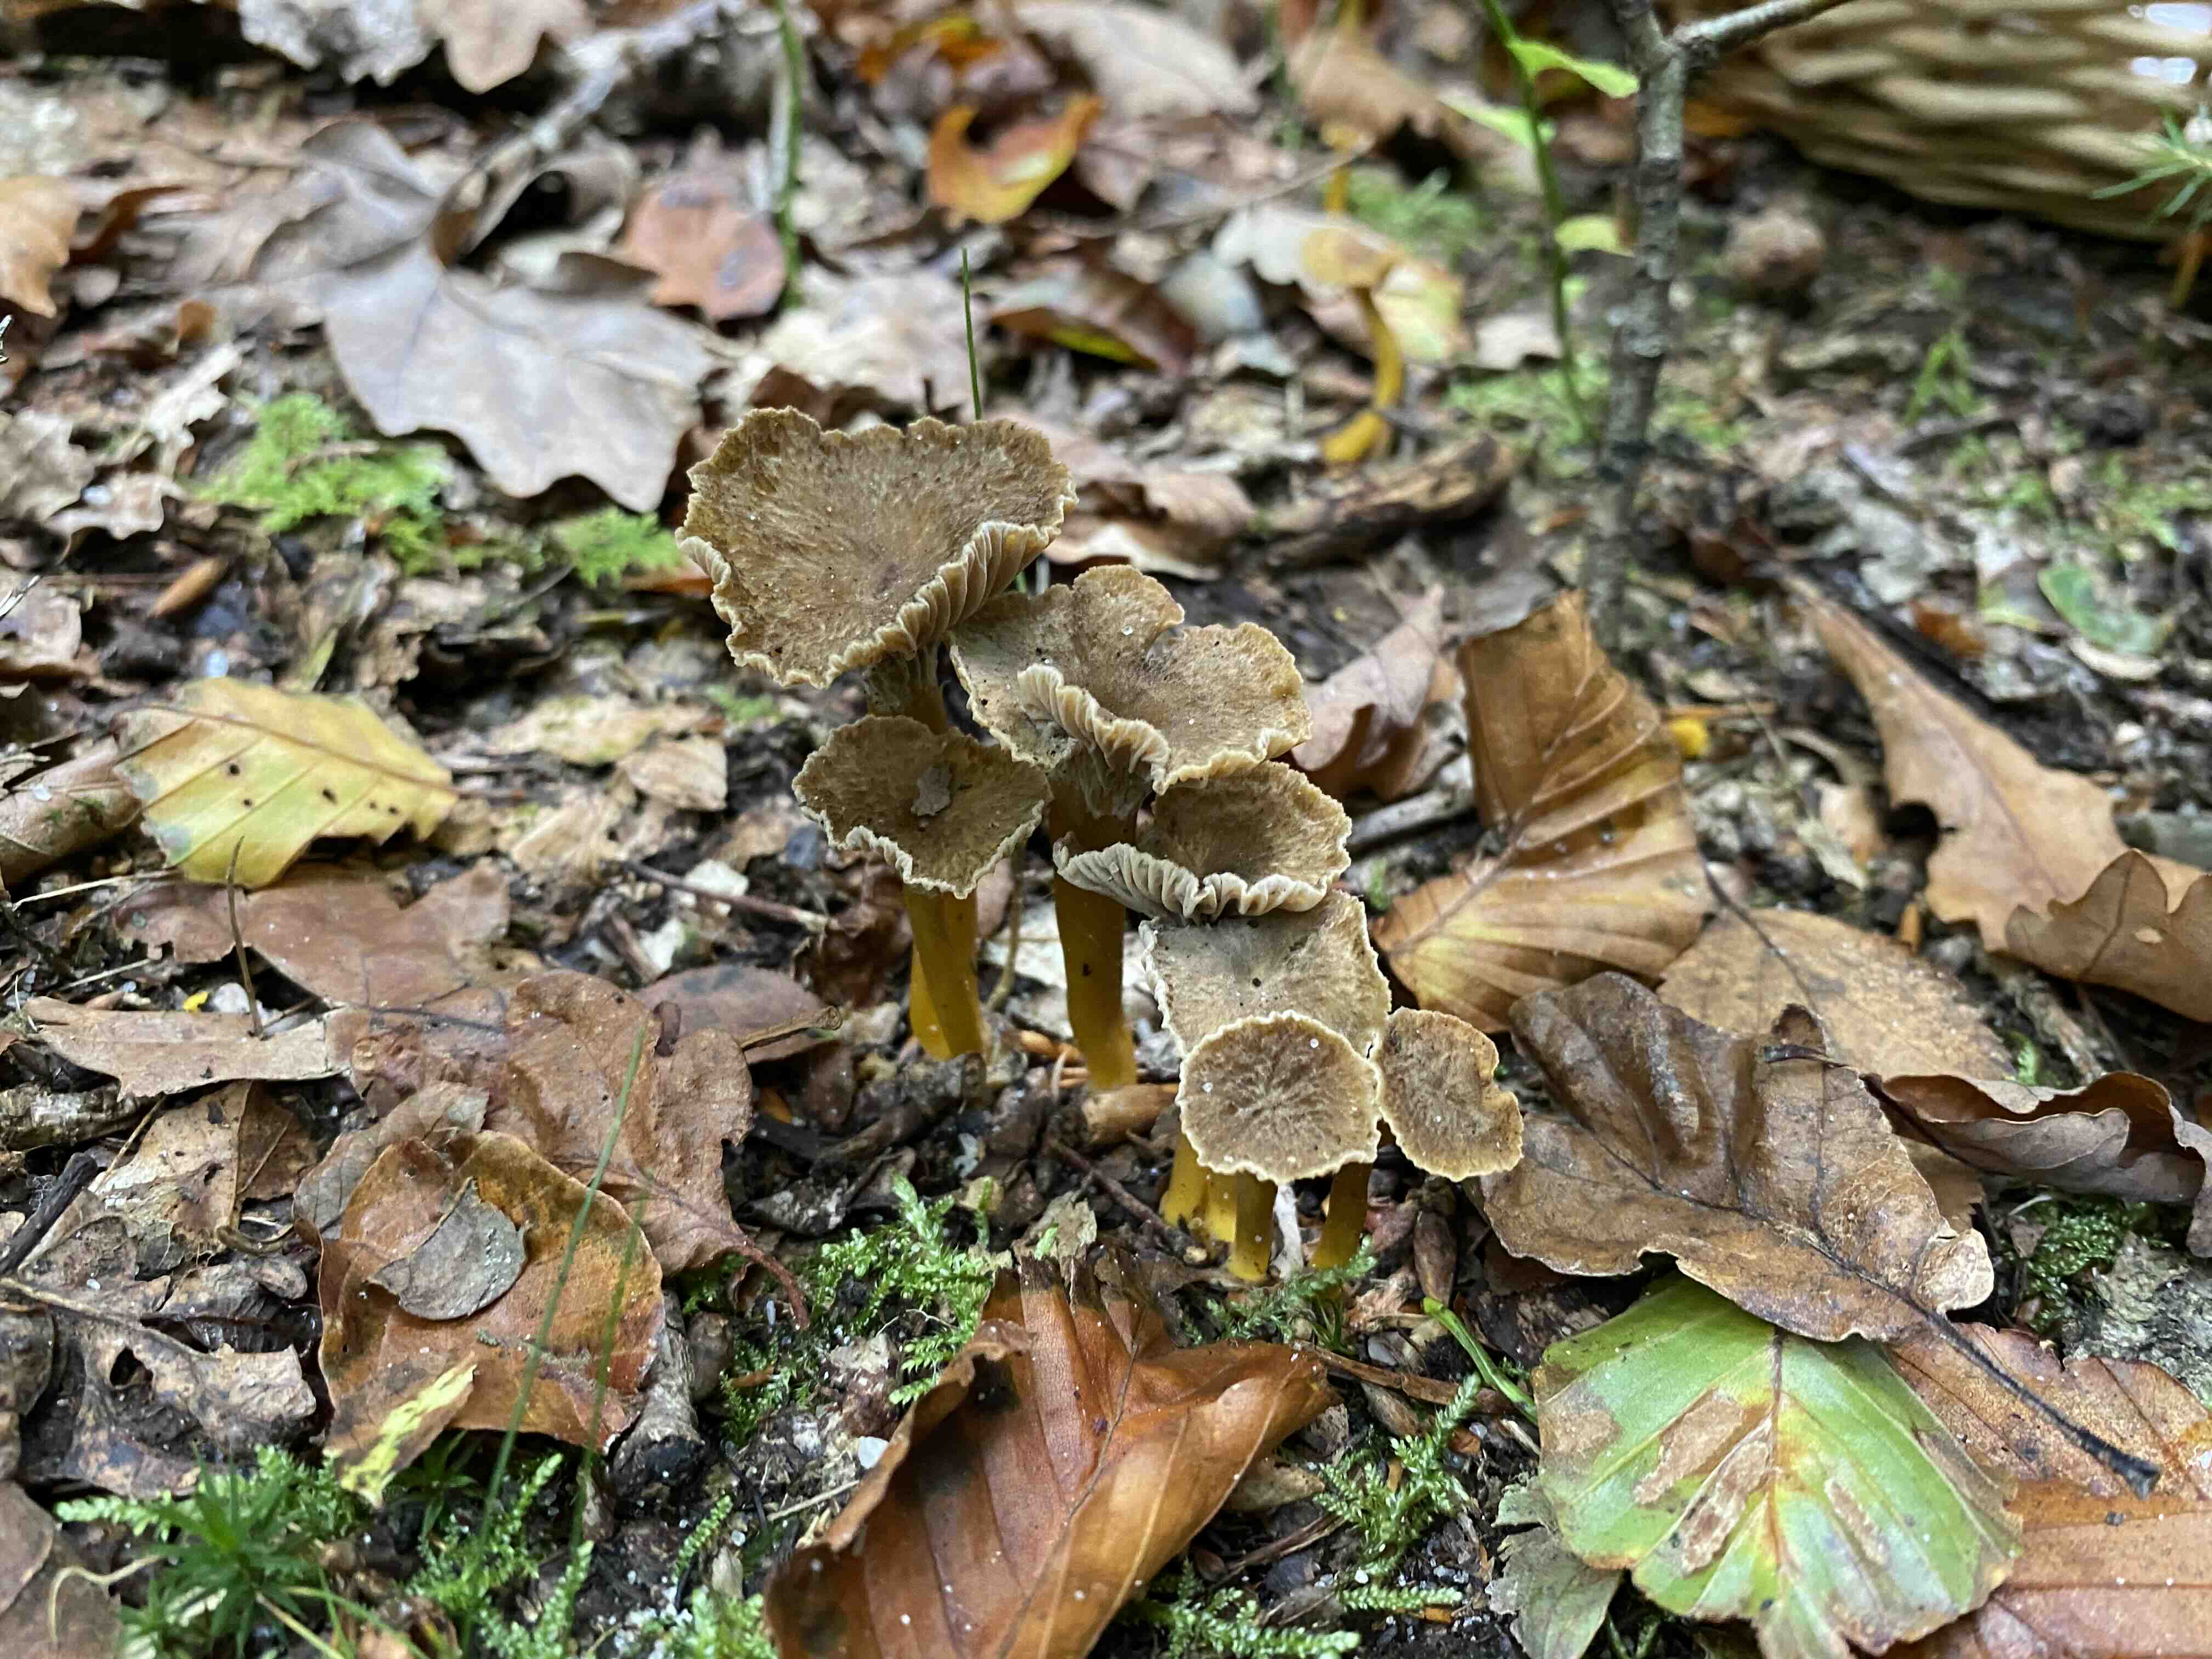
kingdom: Fungi
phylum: Basidiomycota
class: Agaricomycetes
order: Cantharellales
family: Hydnaceae
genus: Craterellus
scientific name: Craterellus tubaeformis
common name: tragt-kantarel
